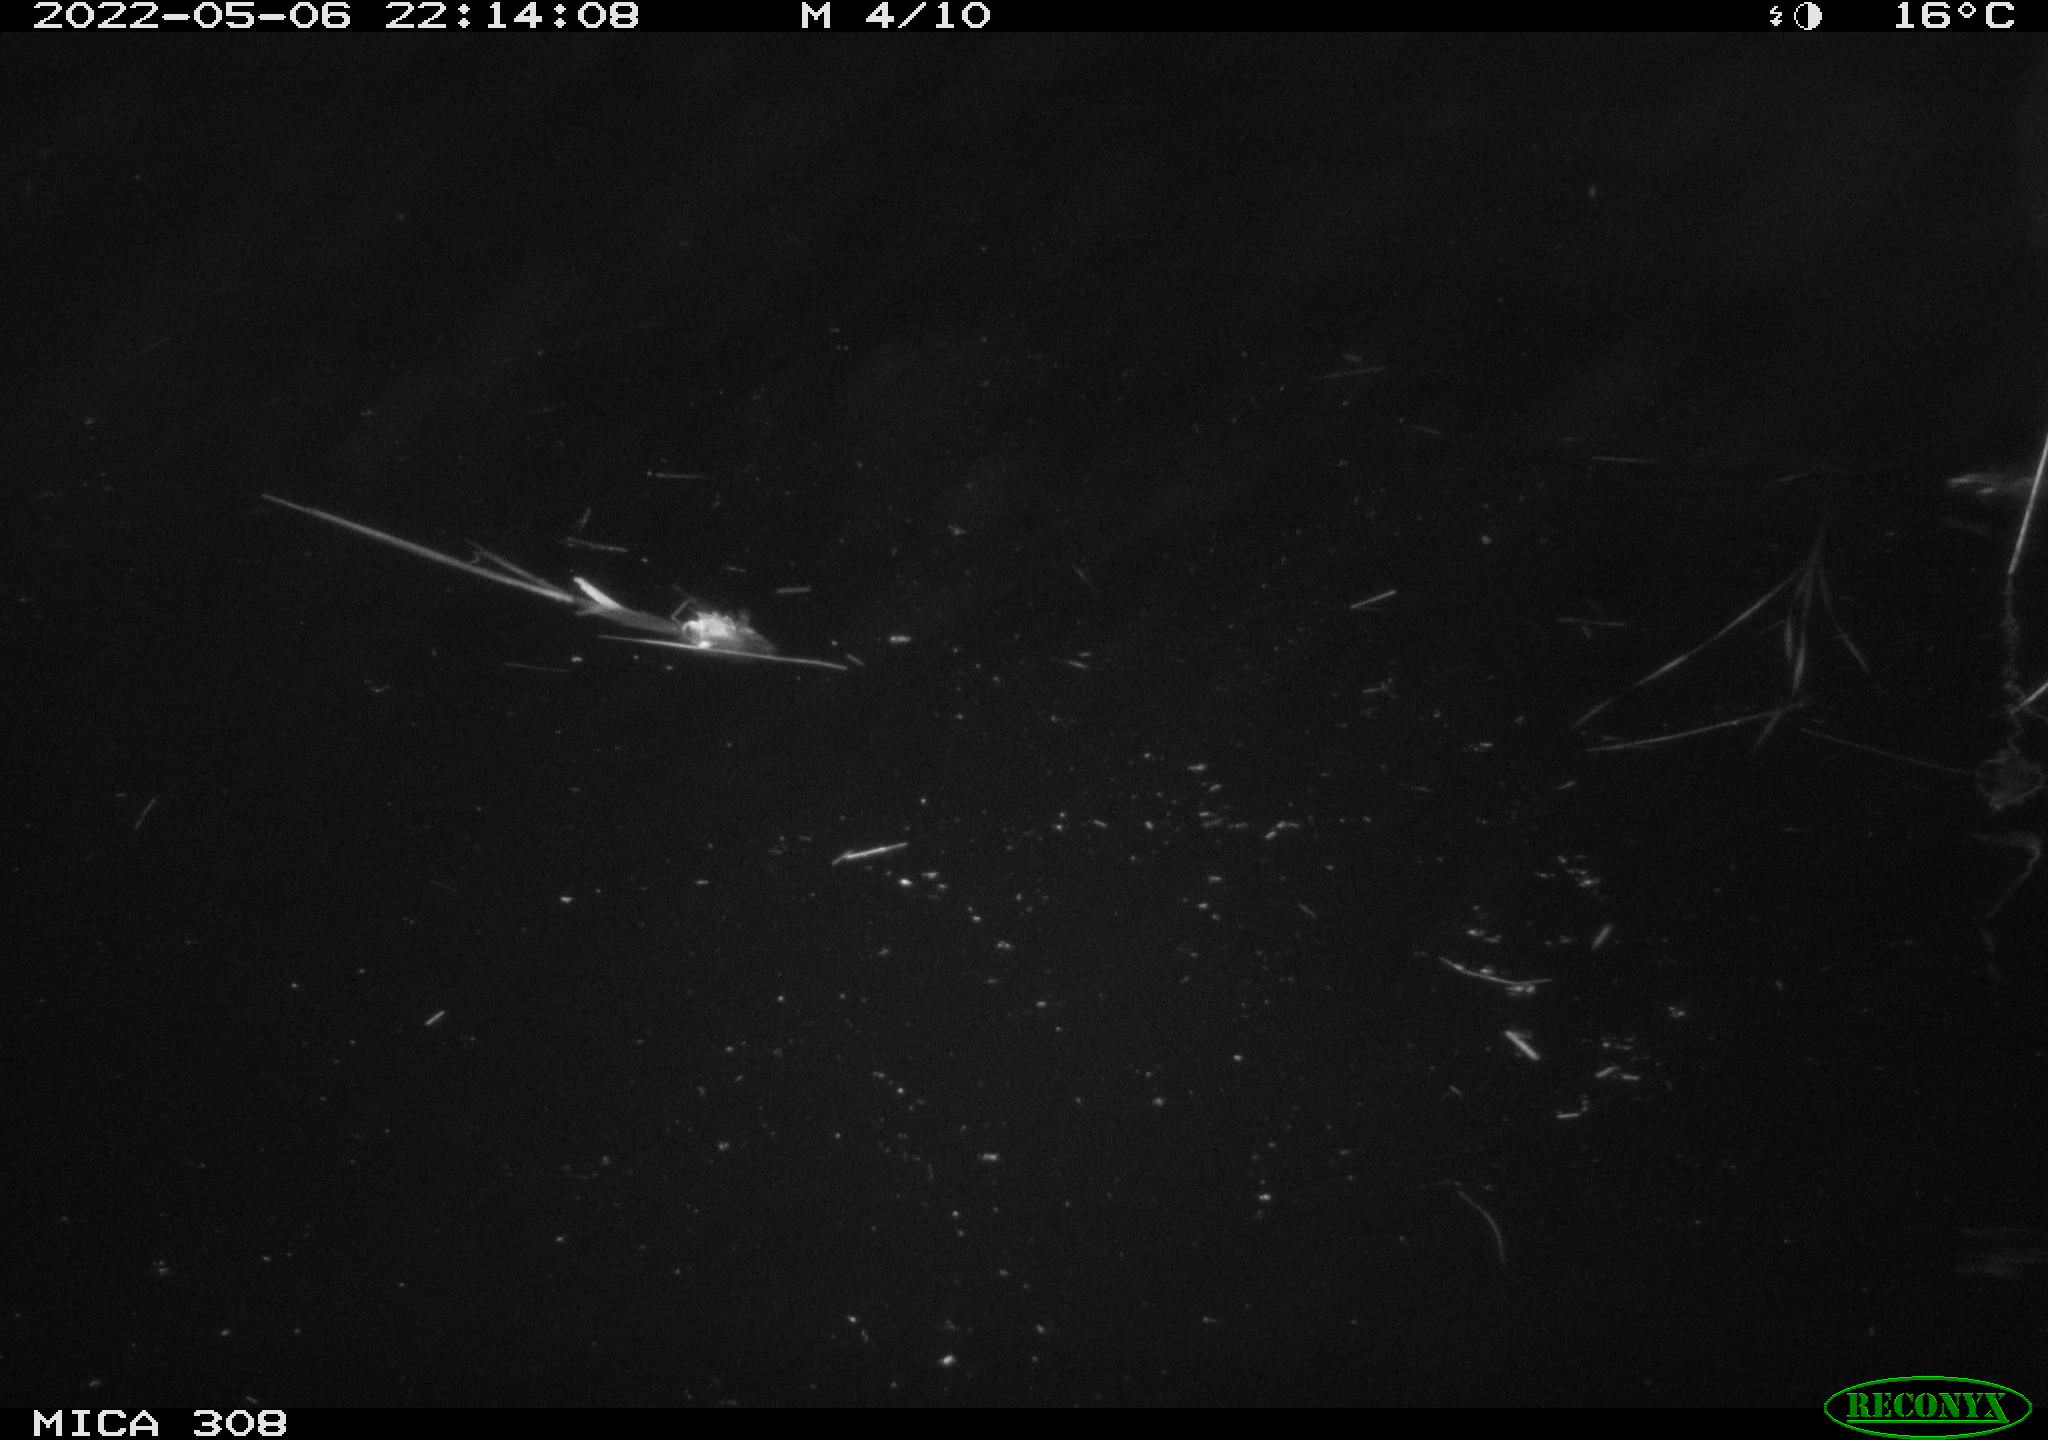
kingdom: Animalia
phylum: Chordata
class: Aves
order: Gruiformes
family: Rallidae
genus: Gallinula
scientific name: Gallinula chloropus
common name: Common moorhen
